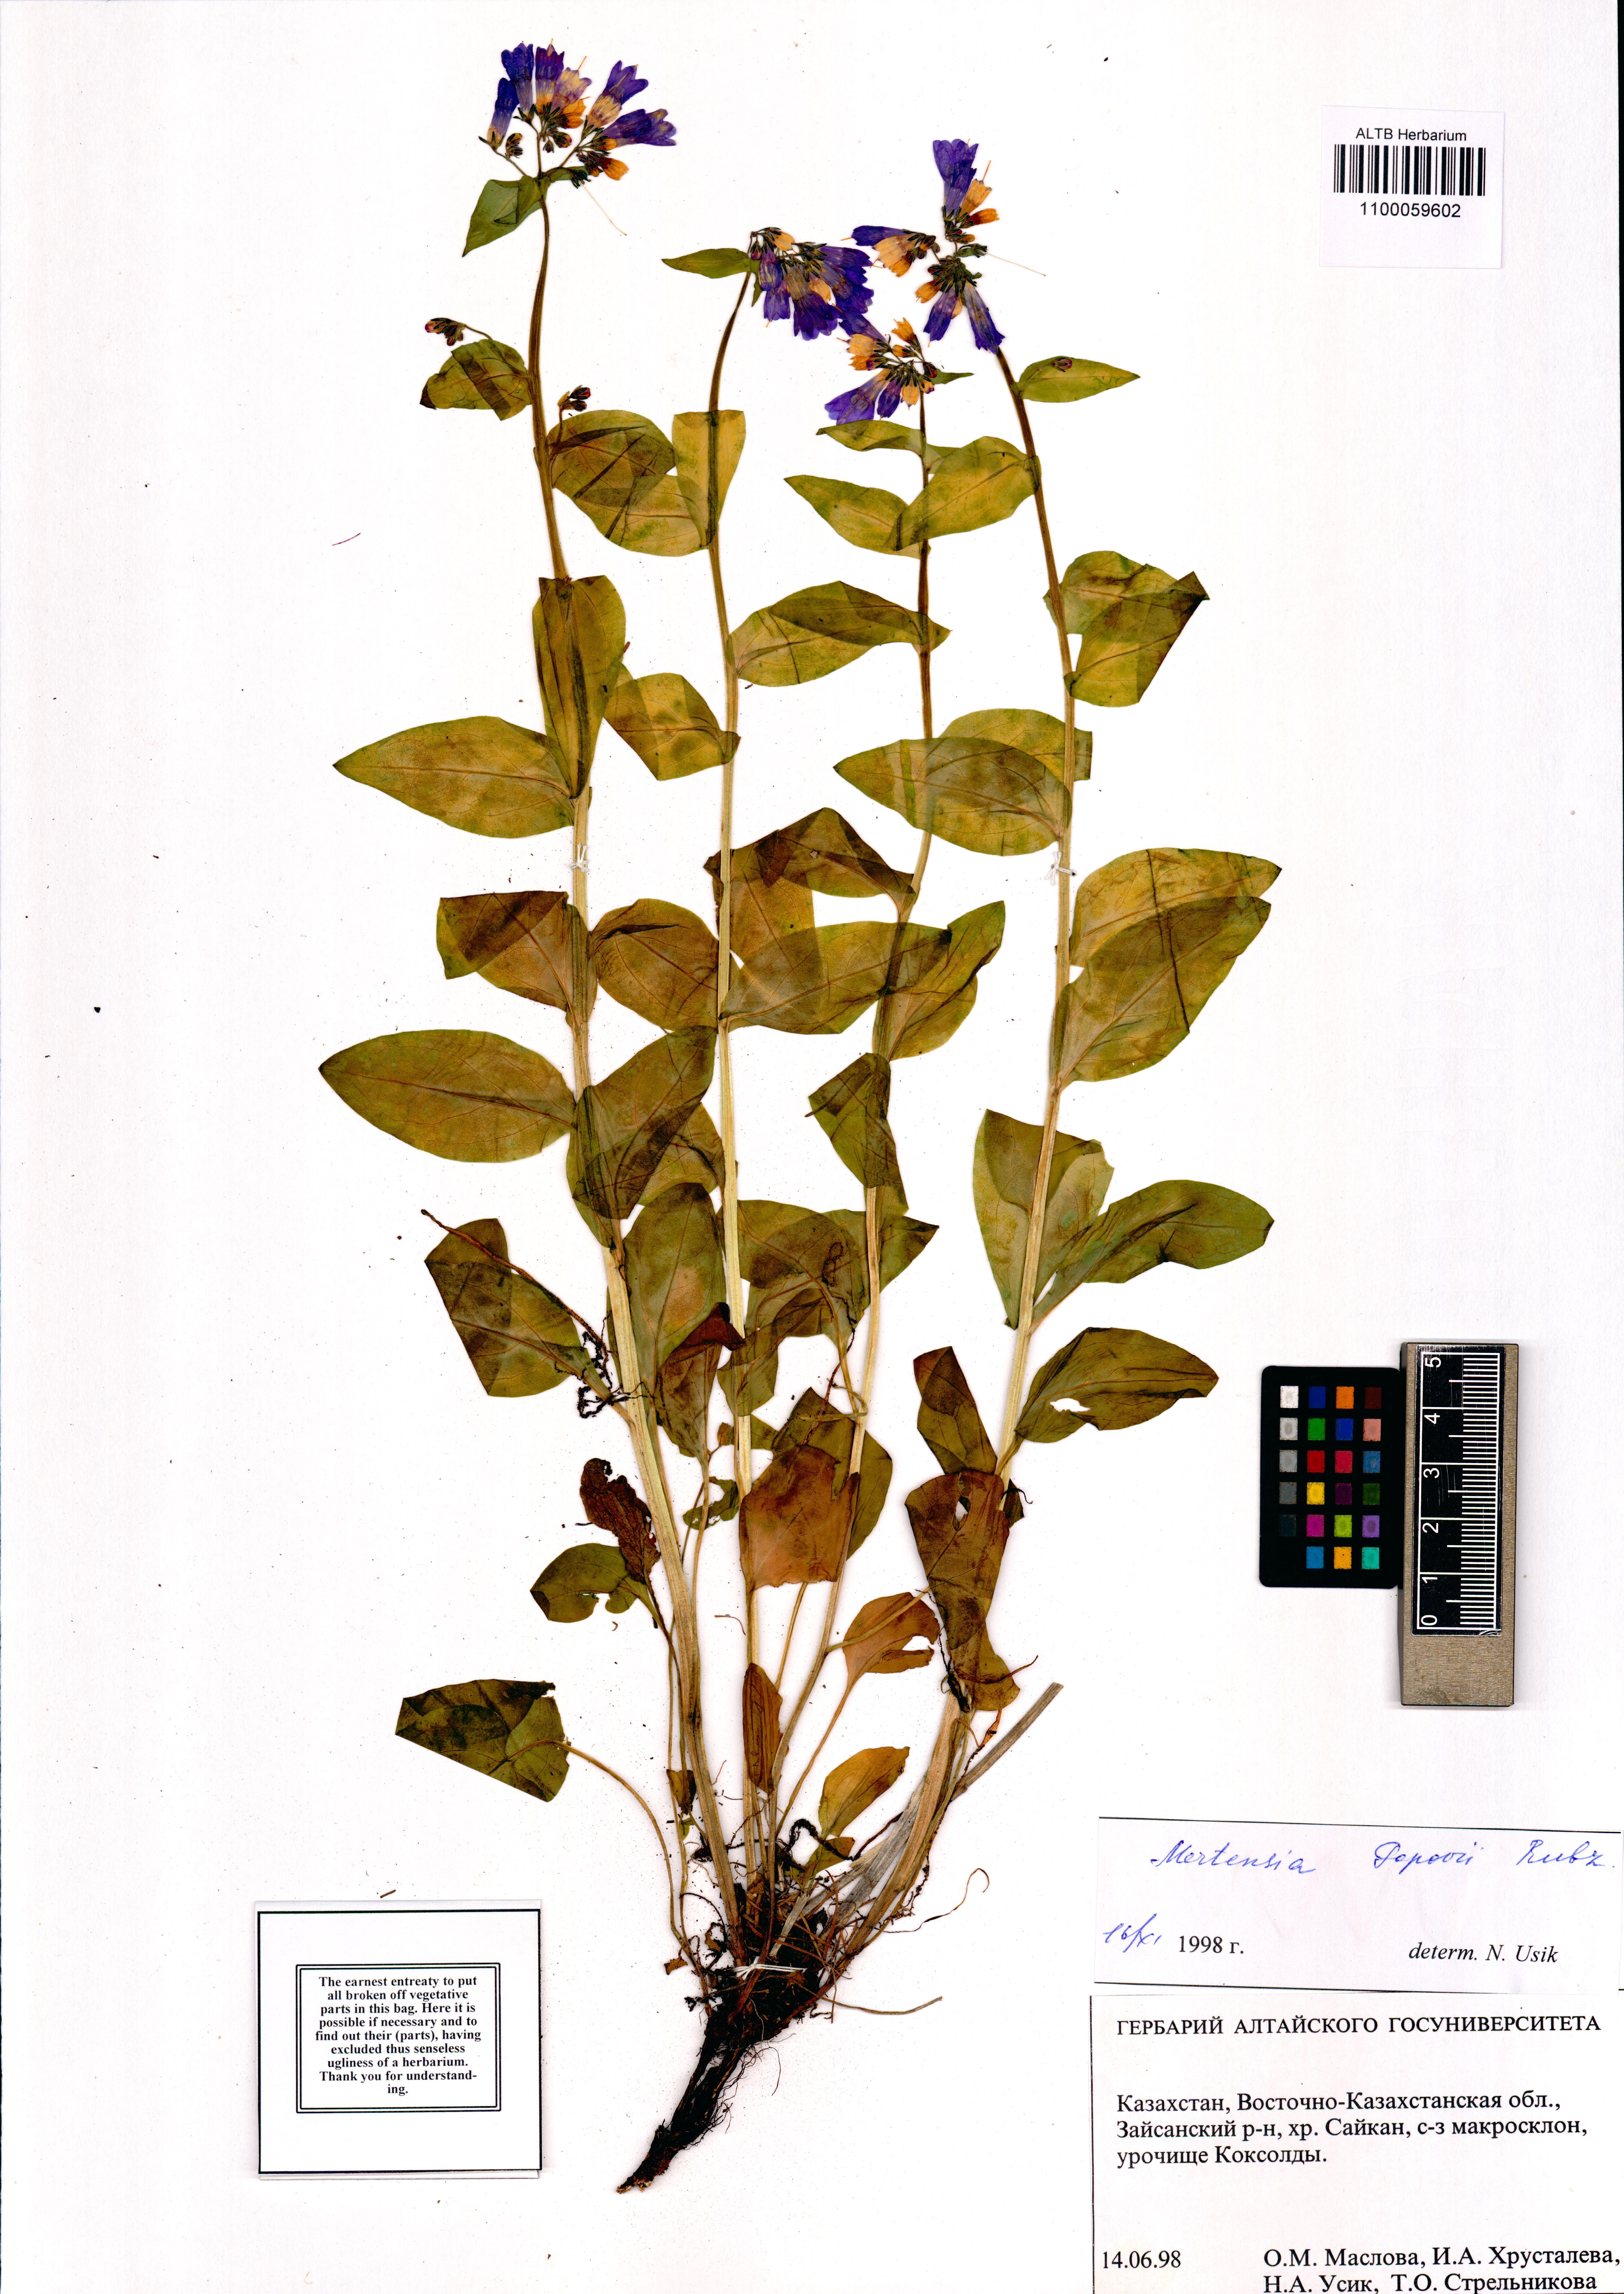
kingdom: Plantae
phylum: Tracheophyta
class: Magnoliopsida
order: Boraginales
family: Boraginaceae
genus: Mertensia
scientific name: Mertensia meyeriana
